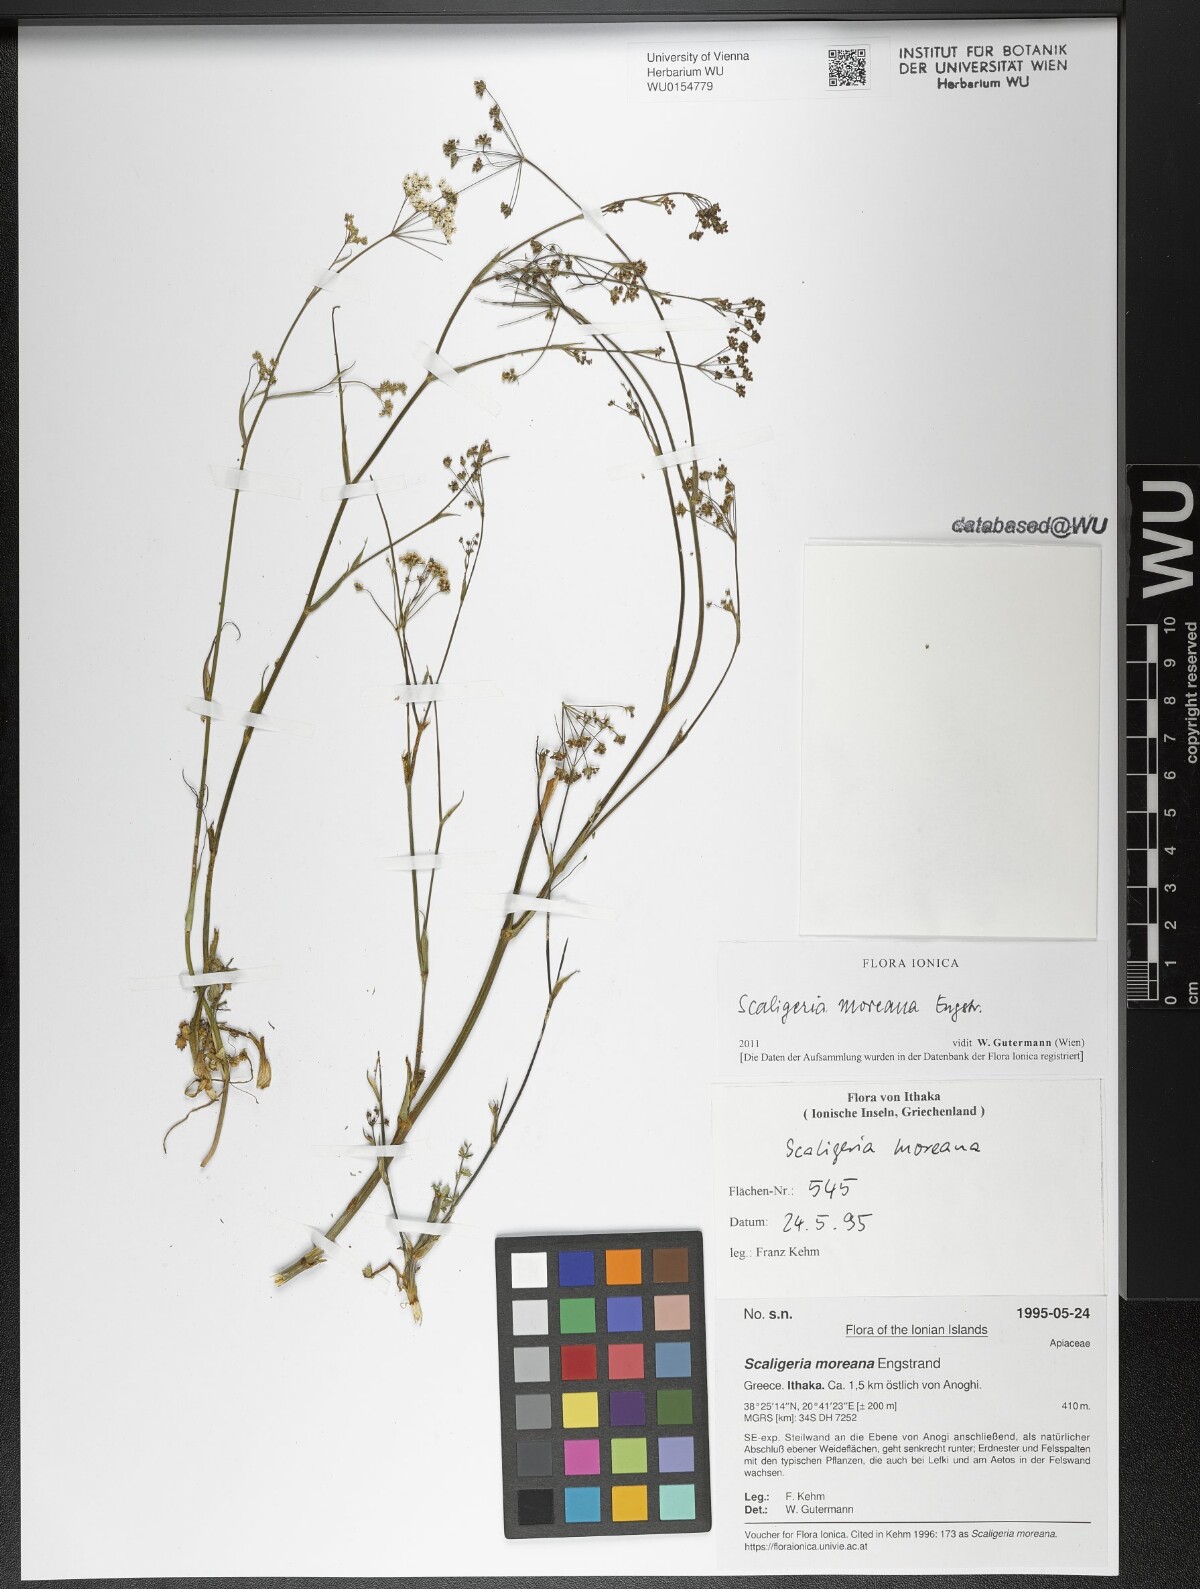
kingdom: Plantae
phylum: Tracheophyta
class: Magnoliopsida
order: Apiales
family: Apiaceae
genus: Scaligeria
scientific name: Scaligeria moreana
